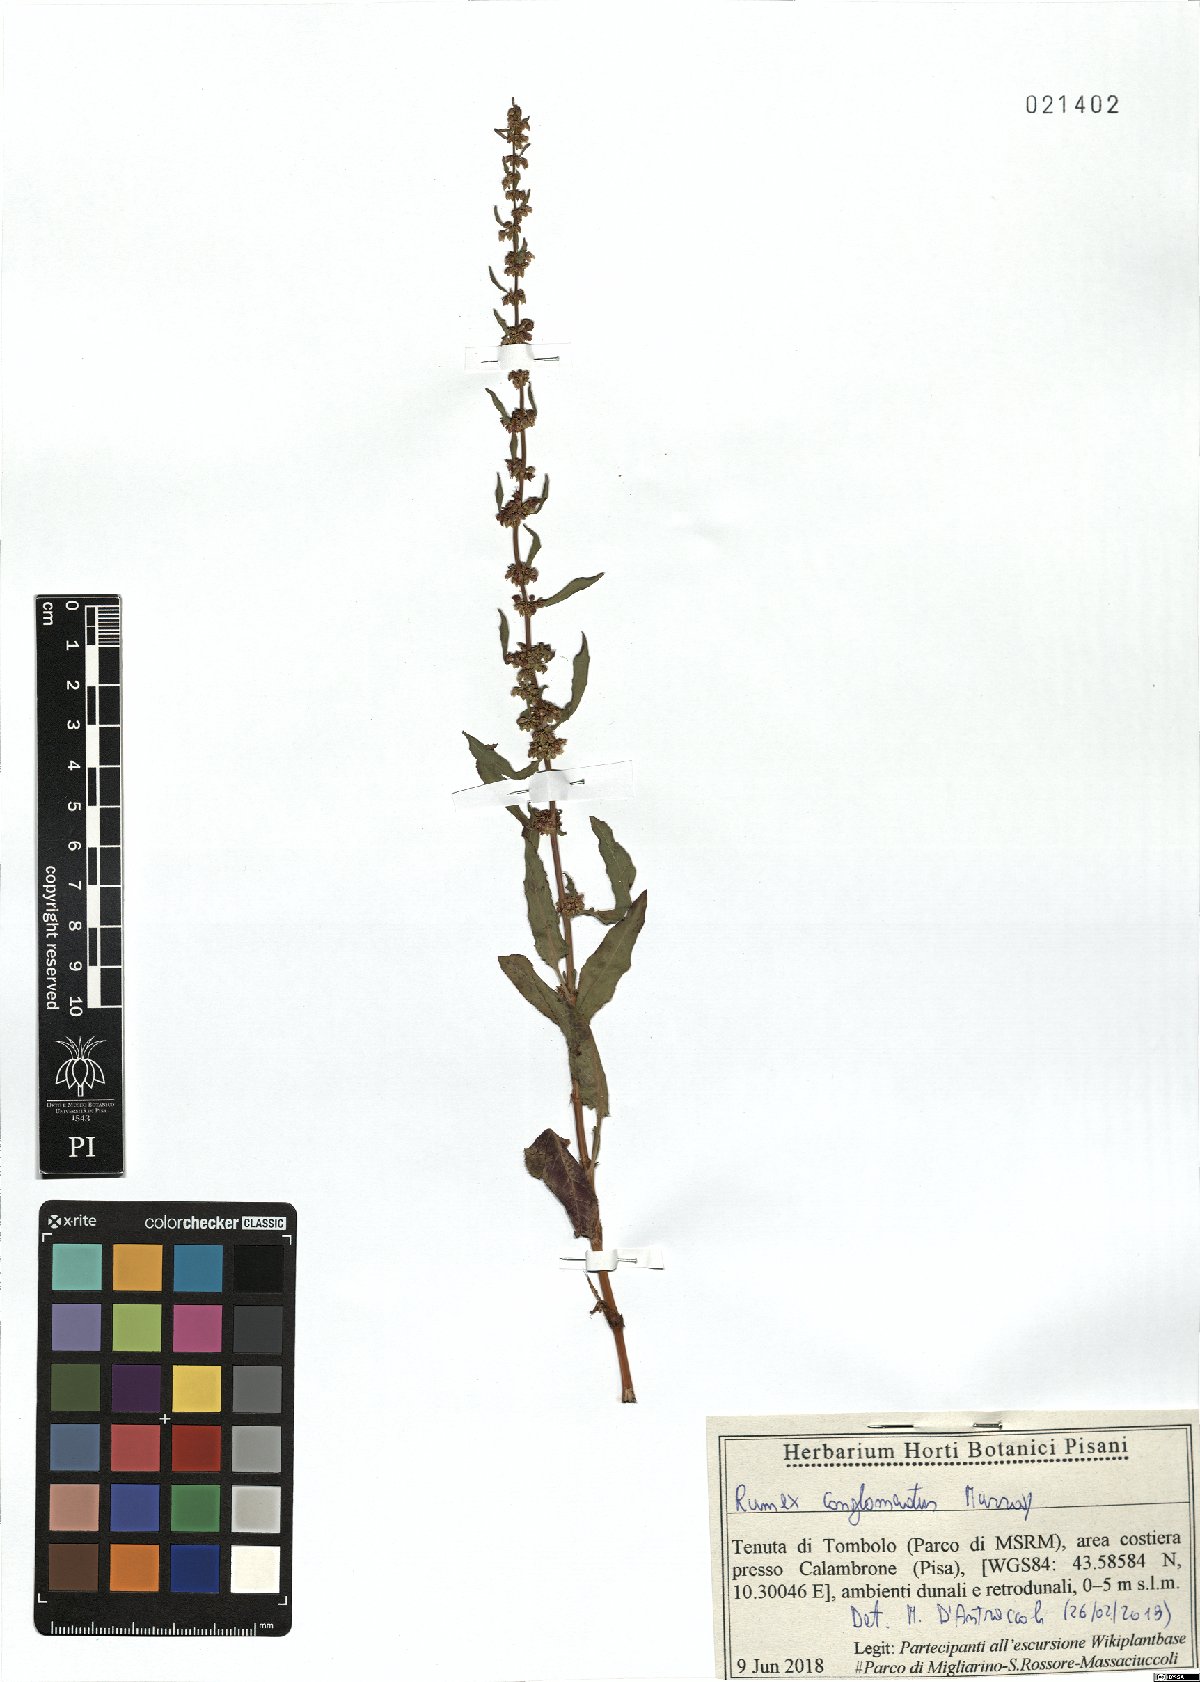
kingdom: Plantae
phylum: Tracheophyta
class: Magnoliopsida
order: Caryophyllales
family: Polygonaceae
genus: Rumex
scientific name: Rumex conglomeratus
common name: Clustered dock
